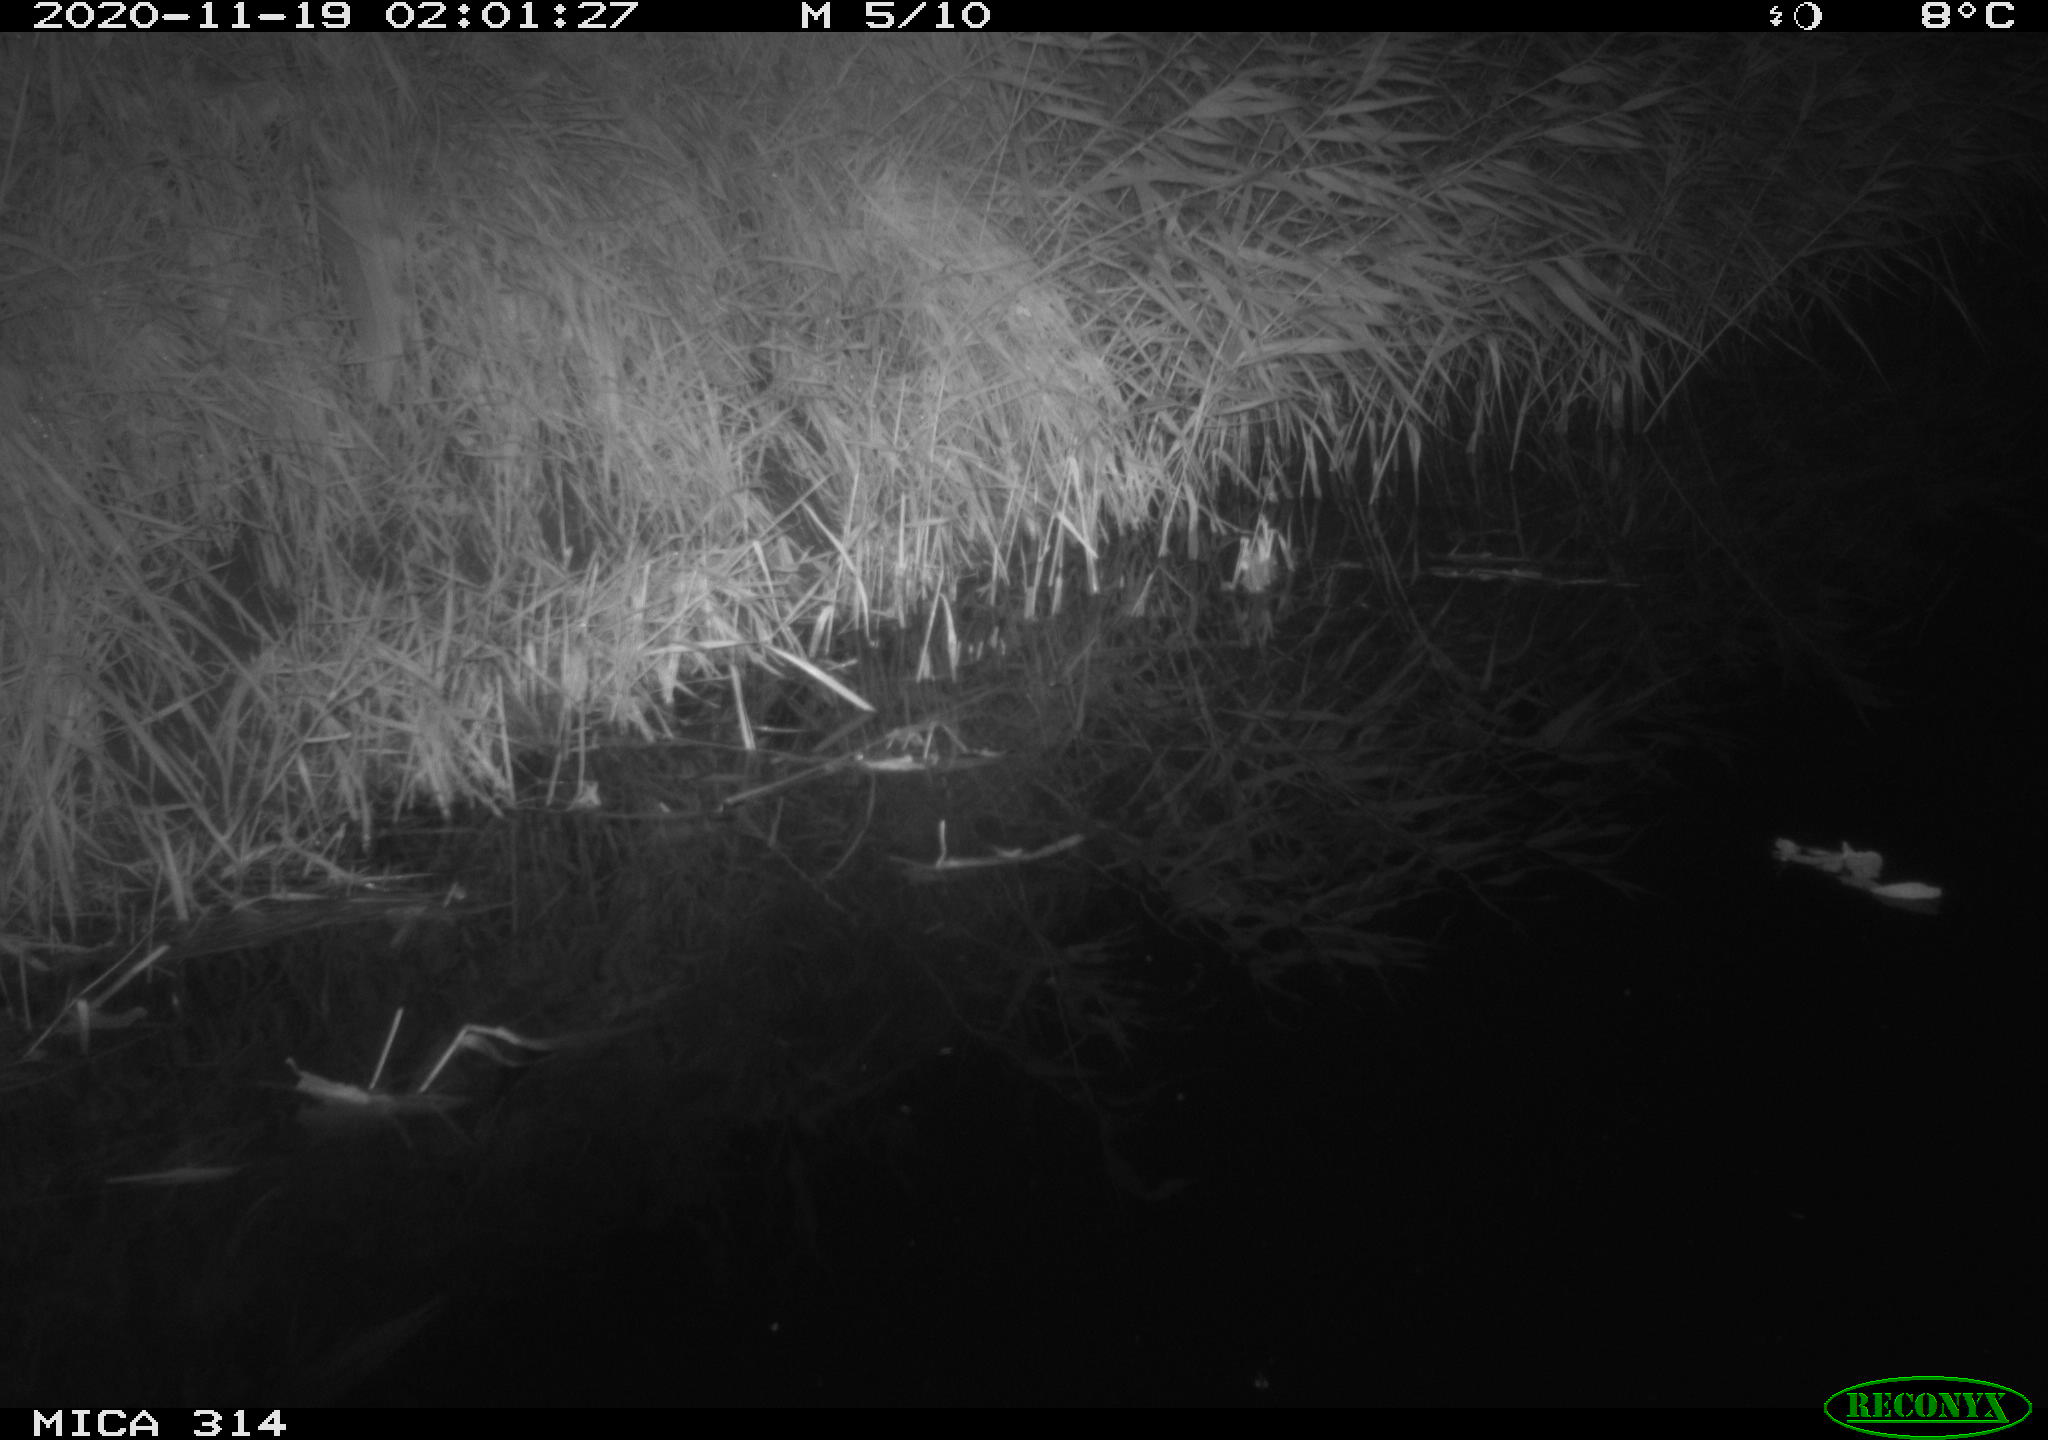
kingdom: Animalia
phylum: Chordata
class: Mammalia
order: Rodentia
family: Muridae
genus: Rattus
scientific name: Rattus norvegicus
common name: Brown rat
